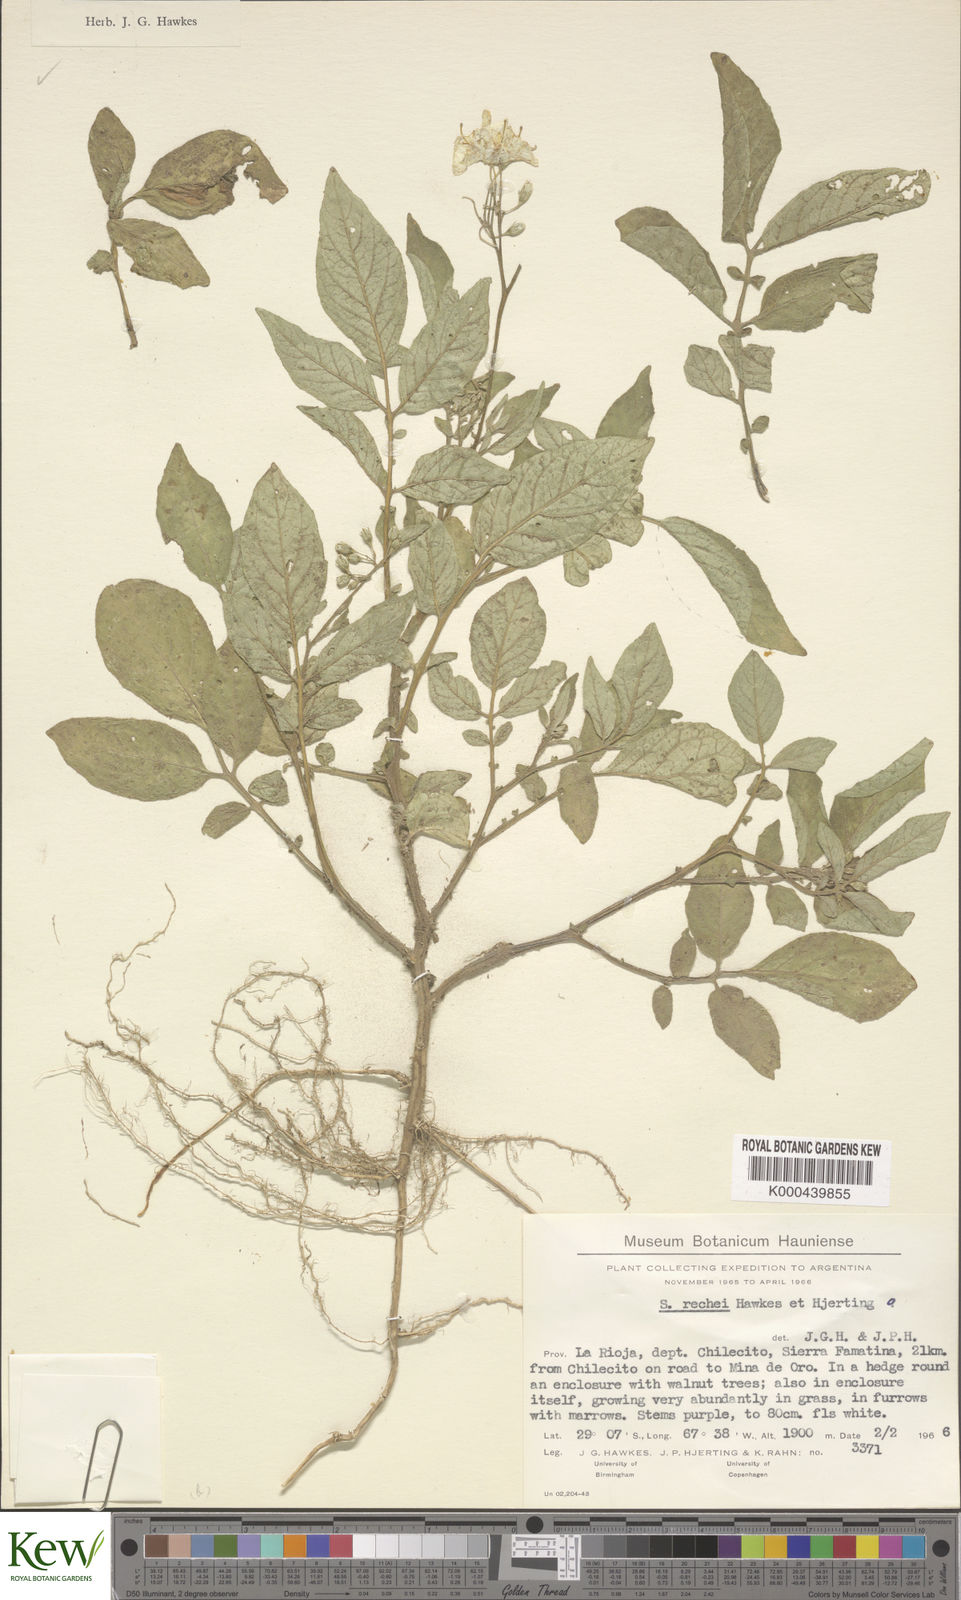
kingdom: Plantae
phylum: Tracheophyta
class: Magnoliopsida
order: Solanales
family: Solanaceae
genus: Solanum
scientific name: Solanum rechei
